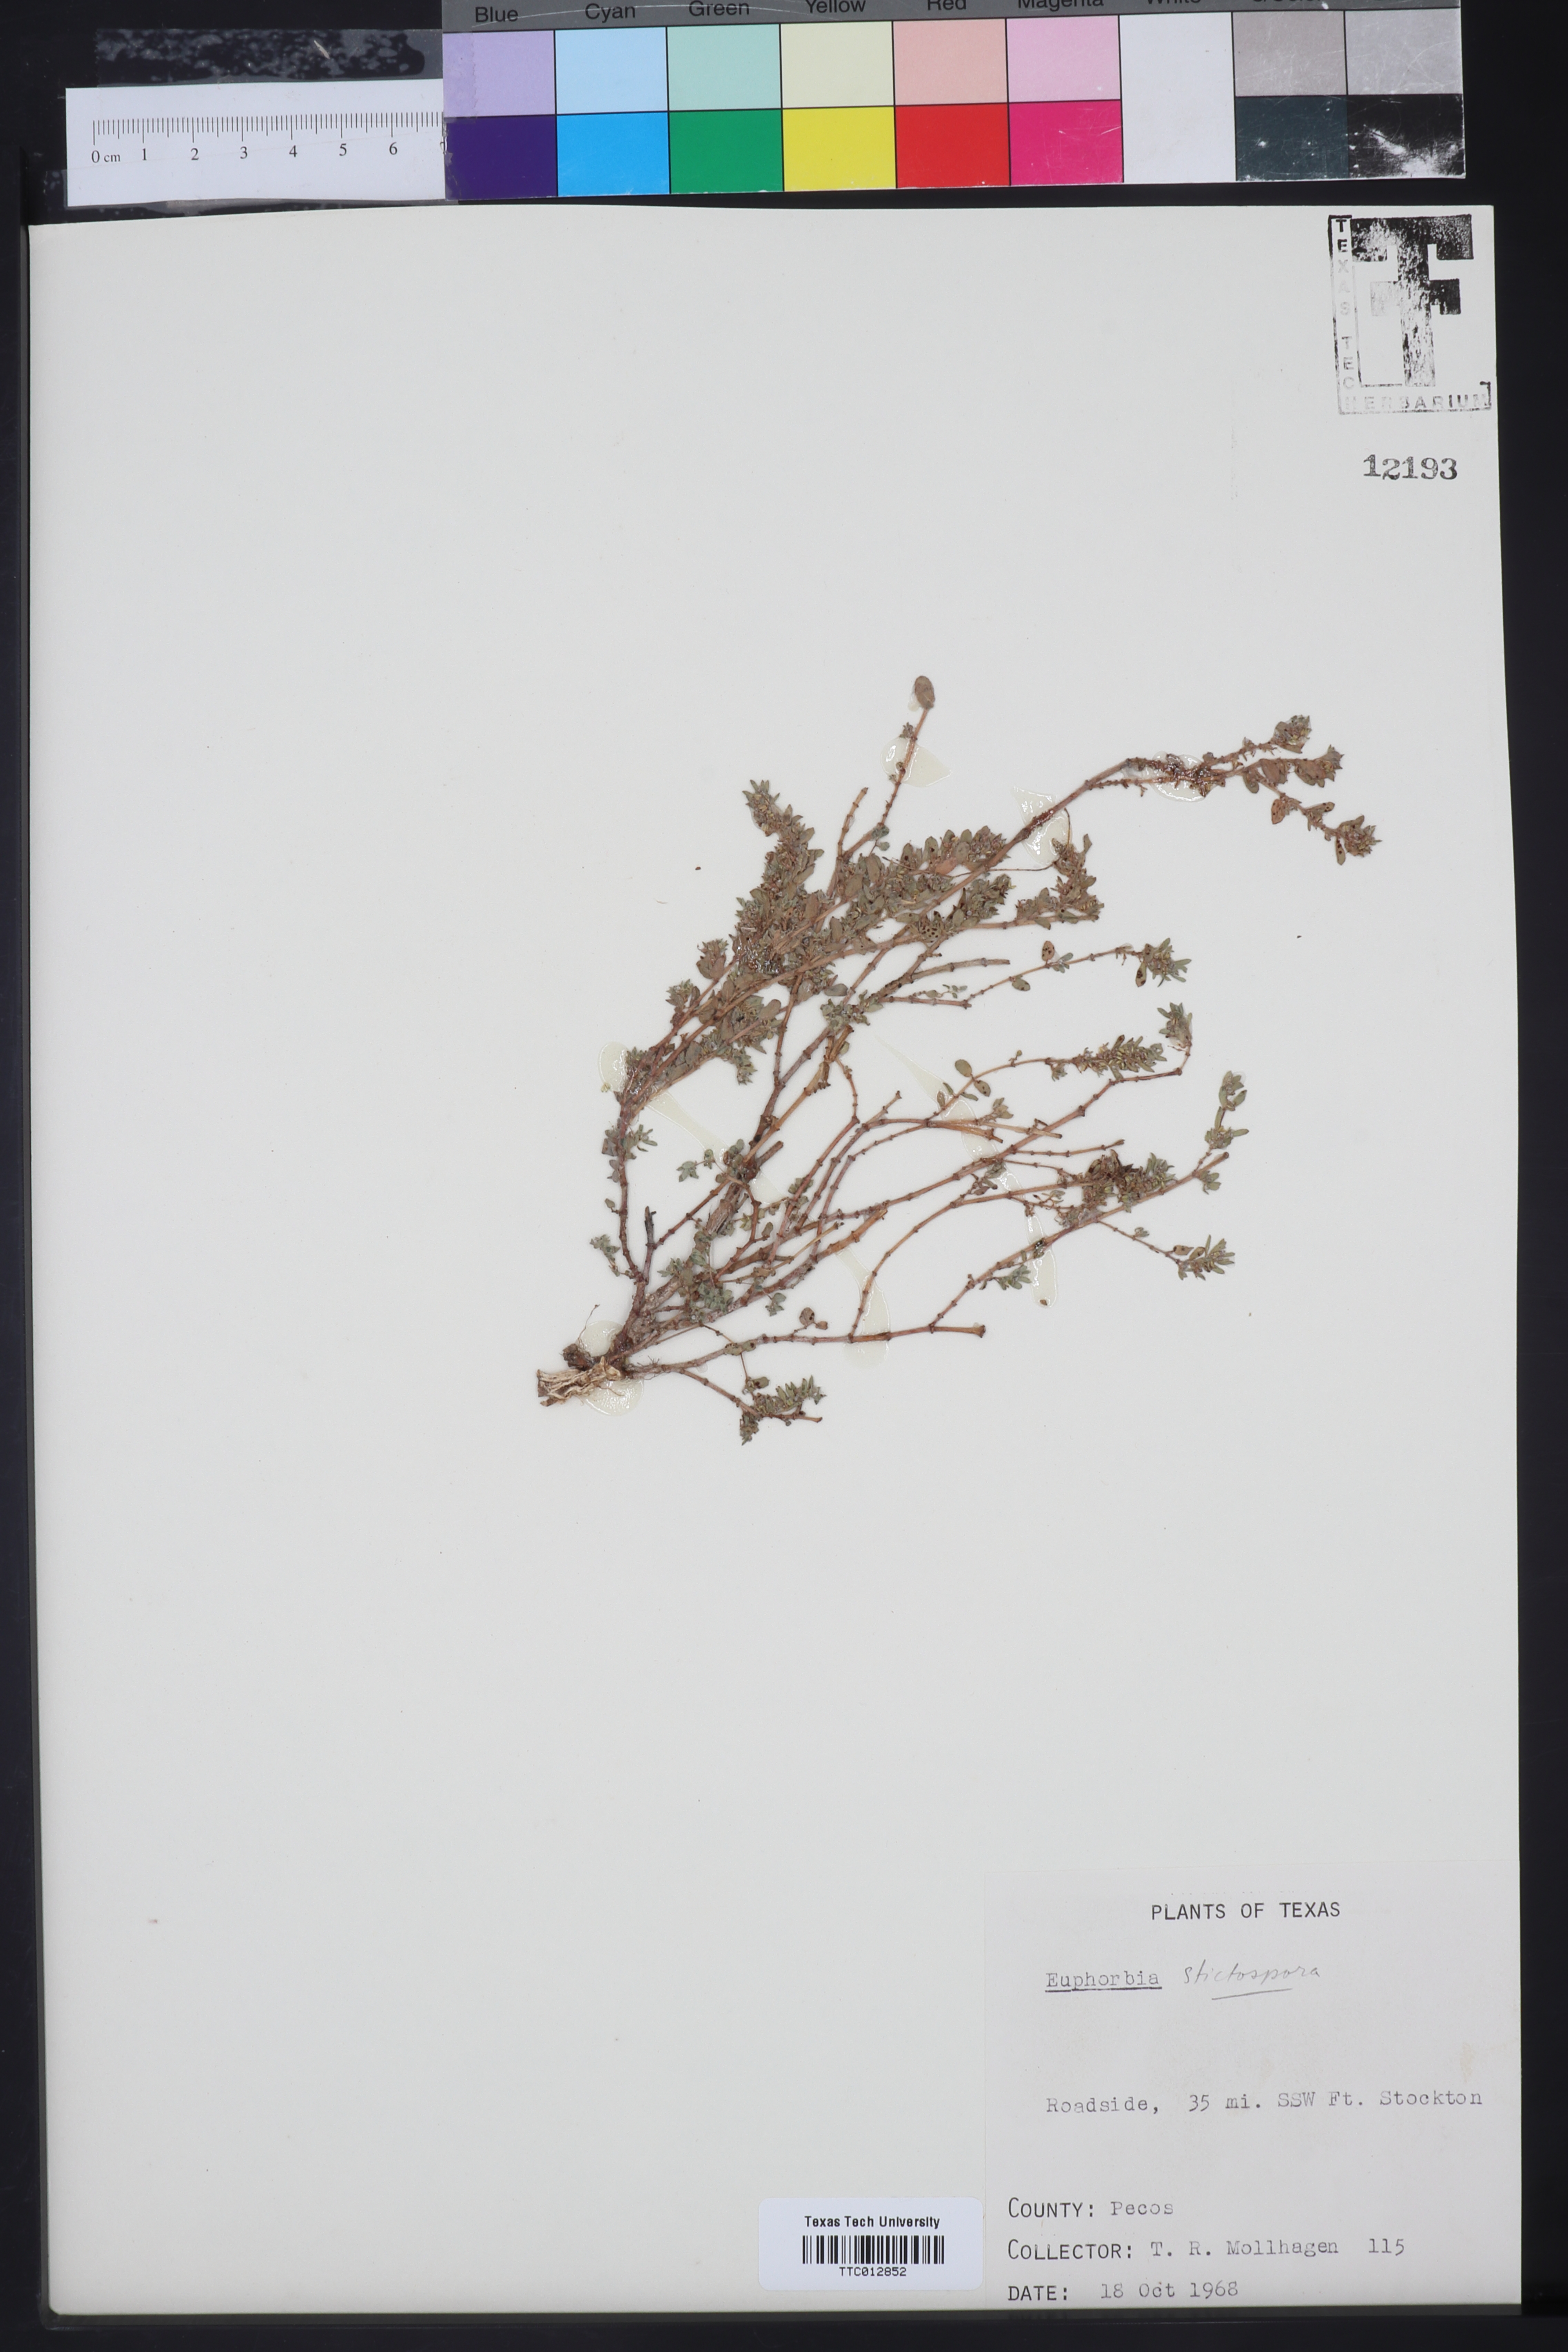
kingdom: Plantae
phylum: Tracheophyta
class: Magnoliopsida
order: Malpighiales
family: Euphorbiaceae
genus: Euphorbia
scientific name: Euphorbia stictospora
